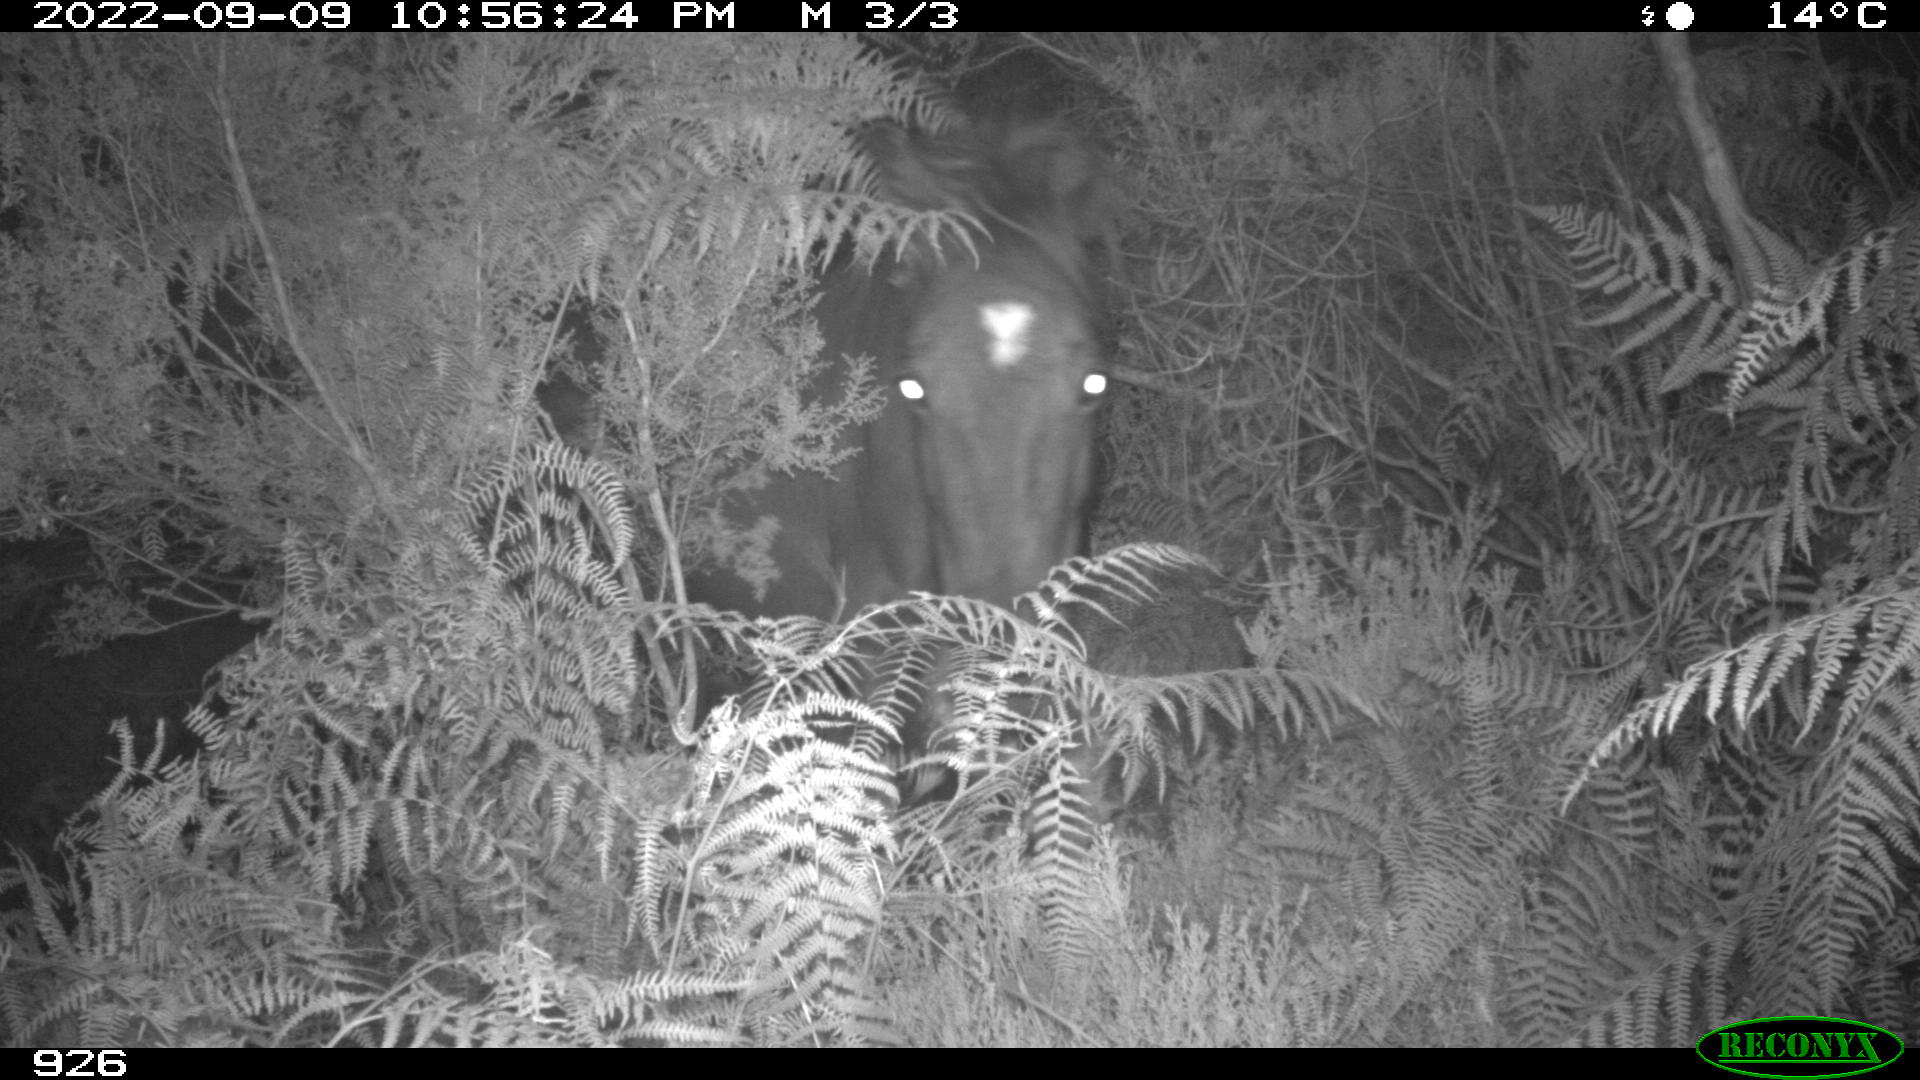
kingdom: Animalia
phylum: Chordata
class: Mammalia
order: Perissodactyla
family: Equidae
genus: Equus
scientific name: Equus caballus
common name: Horse
